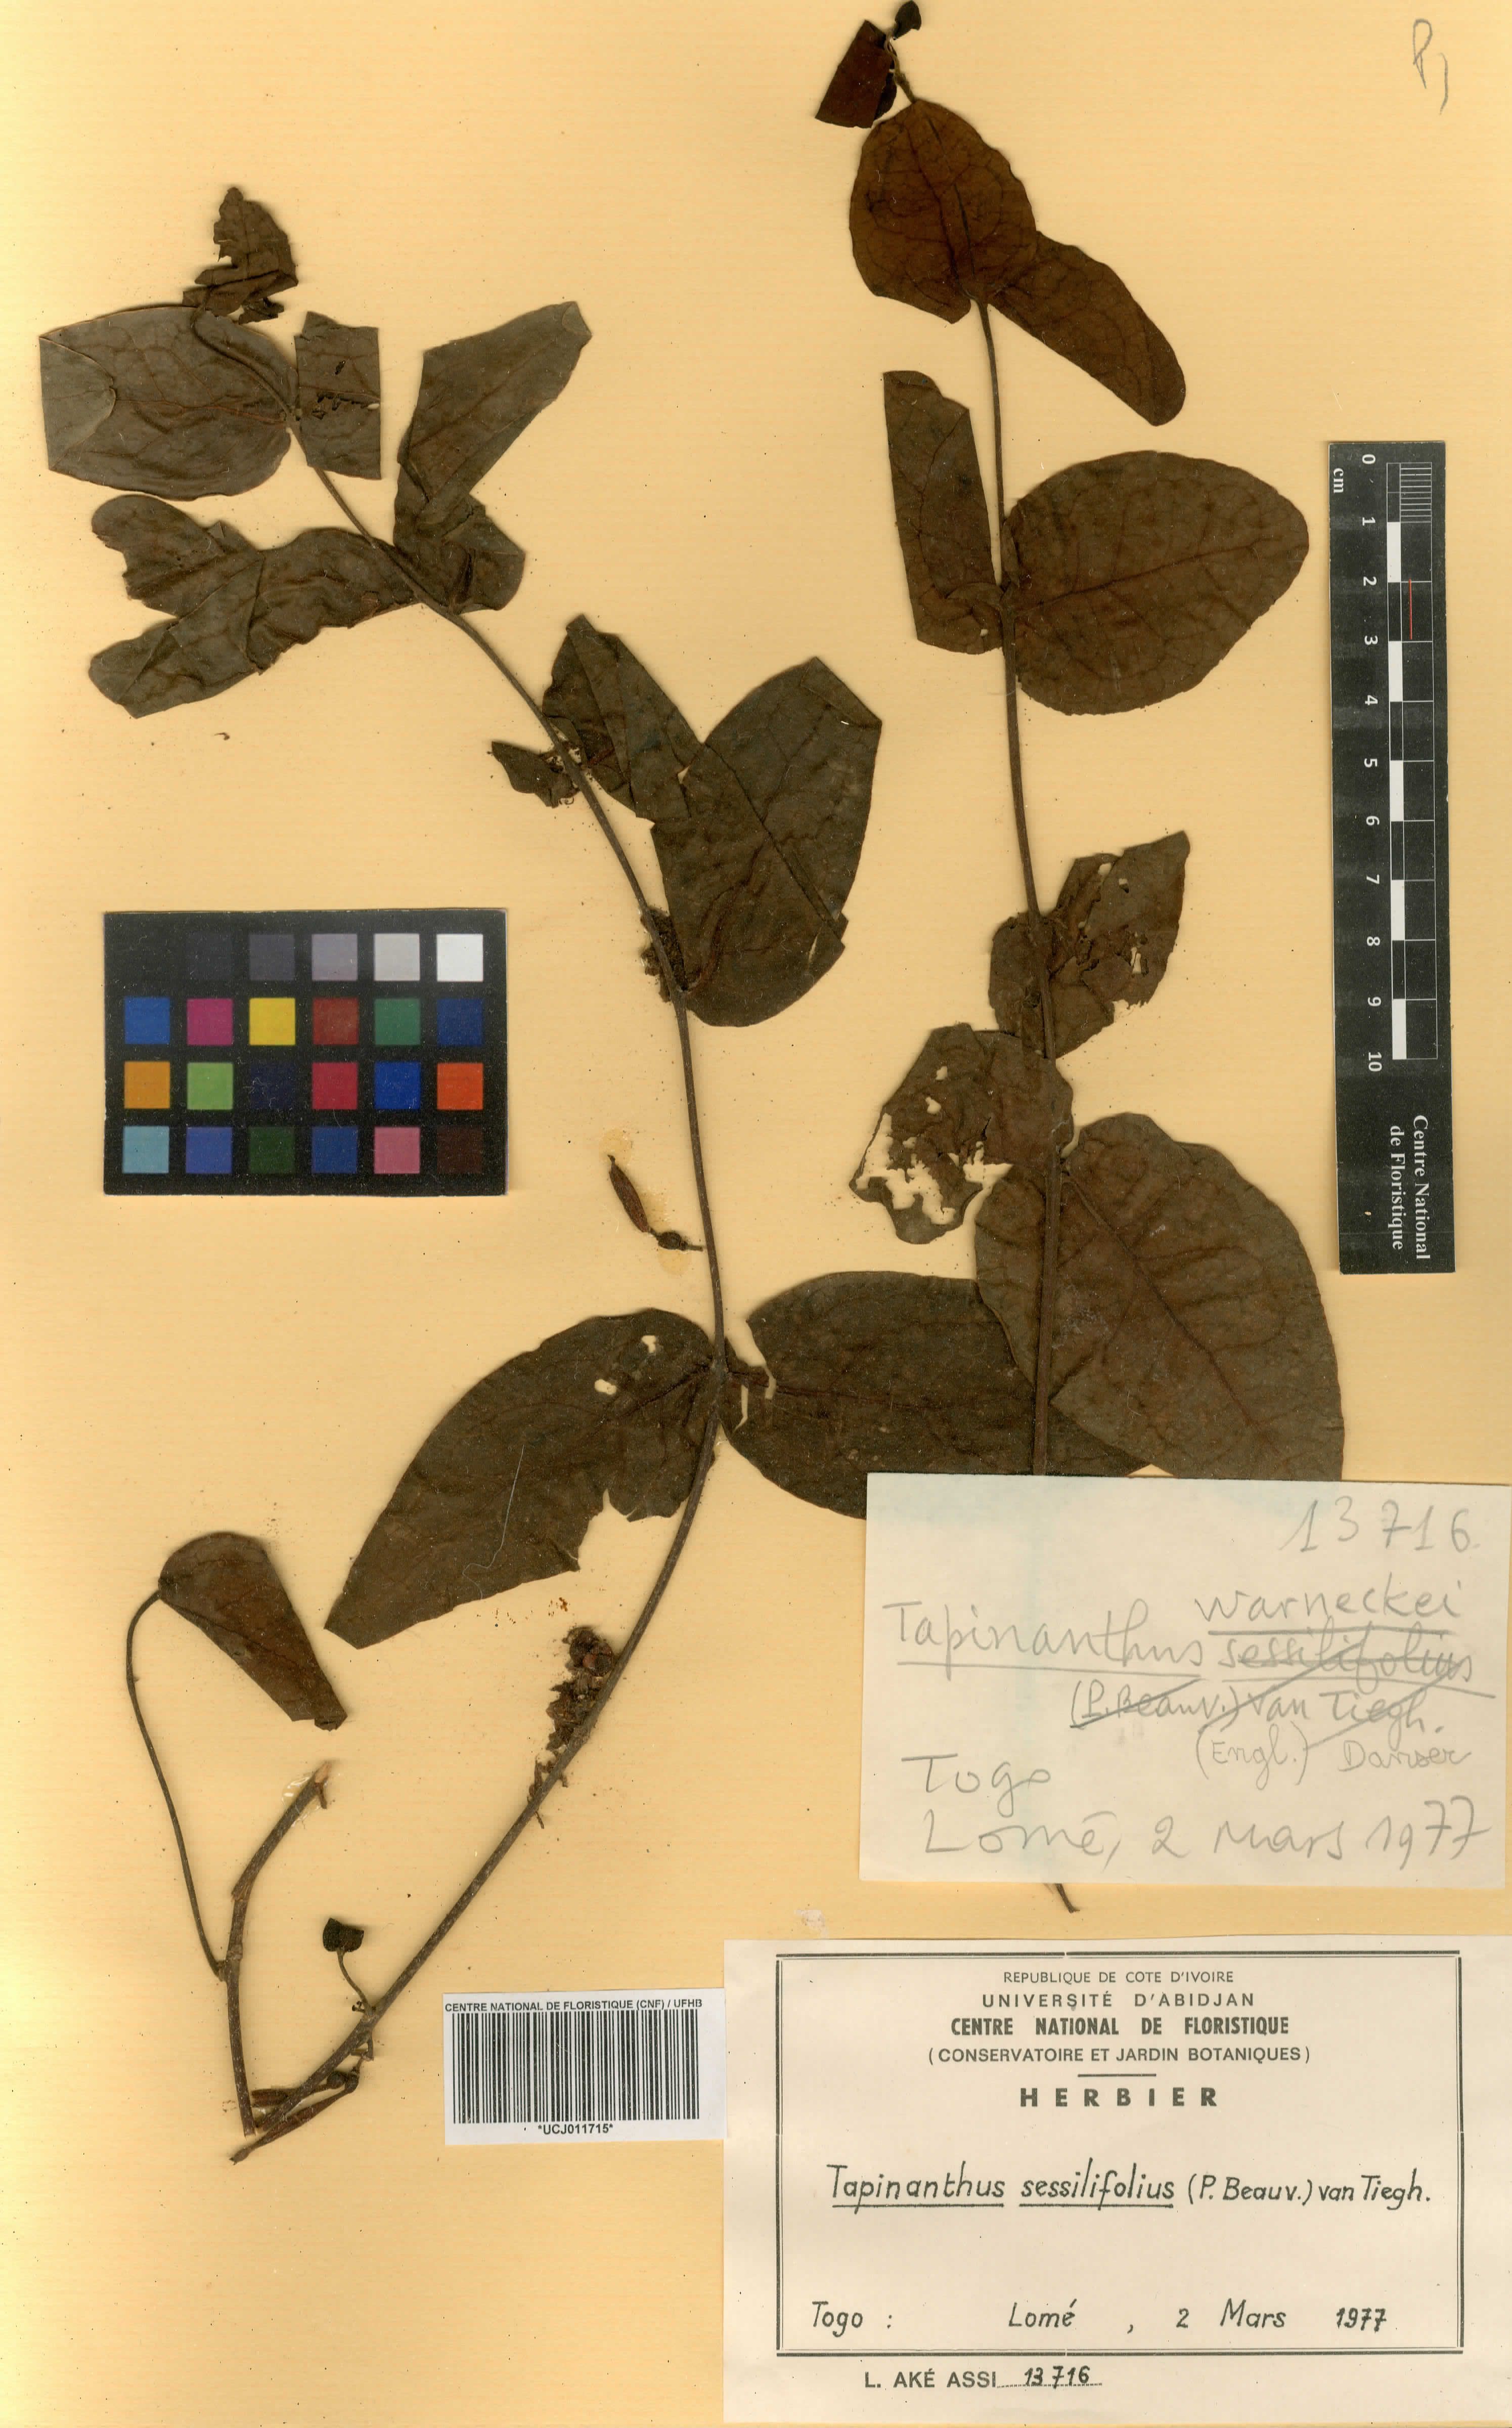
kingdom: Plantae
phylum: Tracheophyta
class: Magnoliopsida
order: Santalales
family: Loranthaceae
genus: Tapinanthus
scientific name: Tapinanthus sessilifolius
